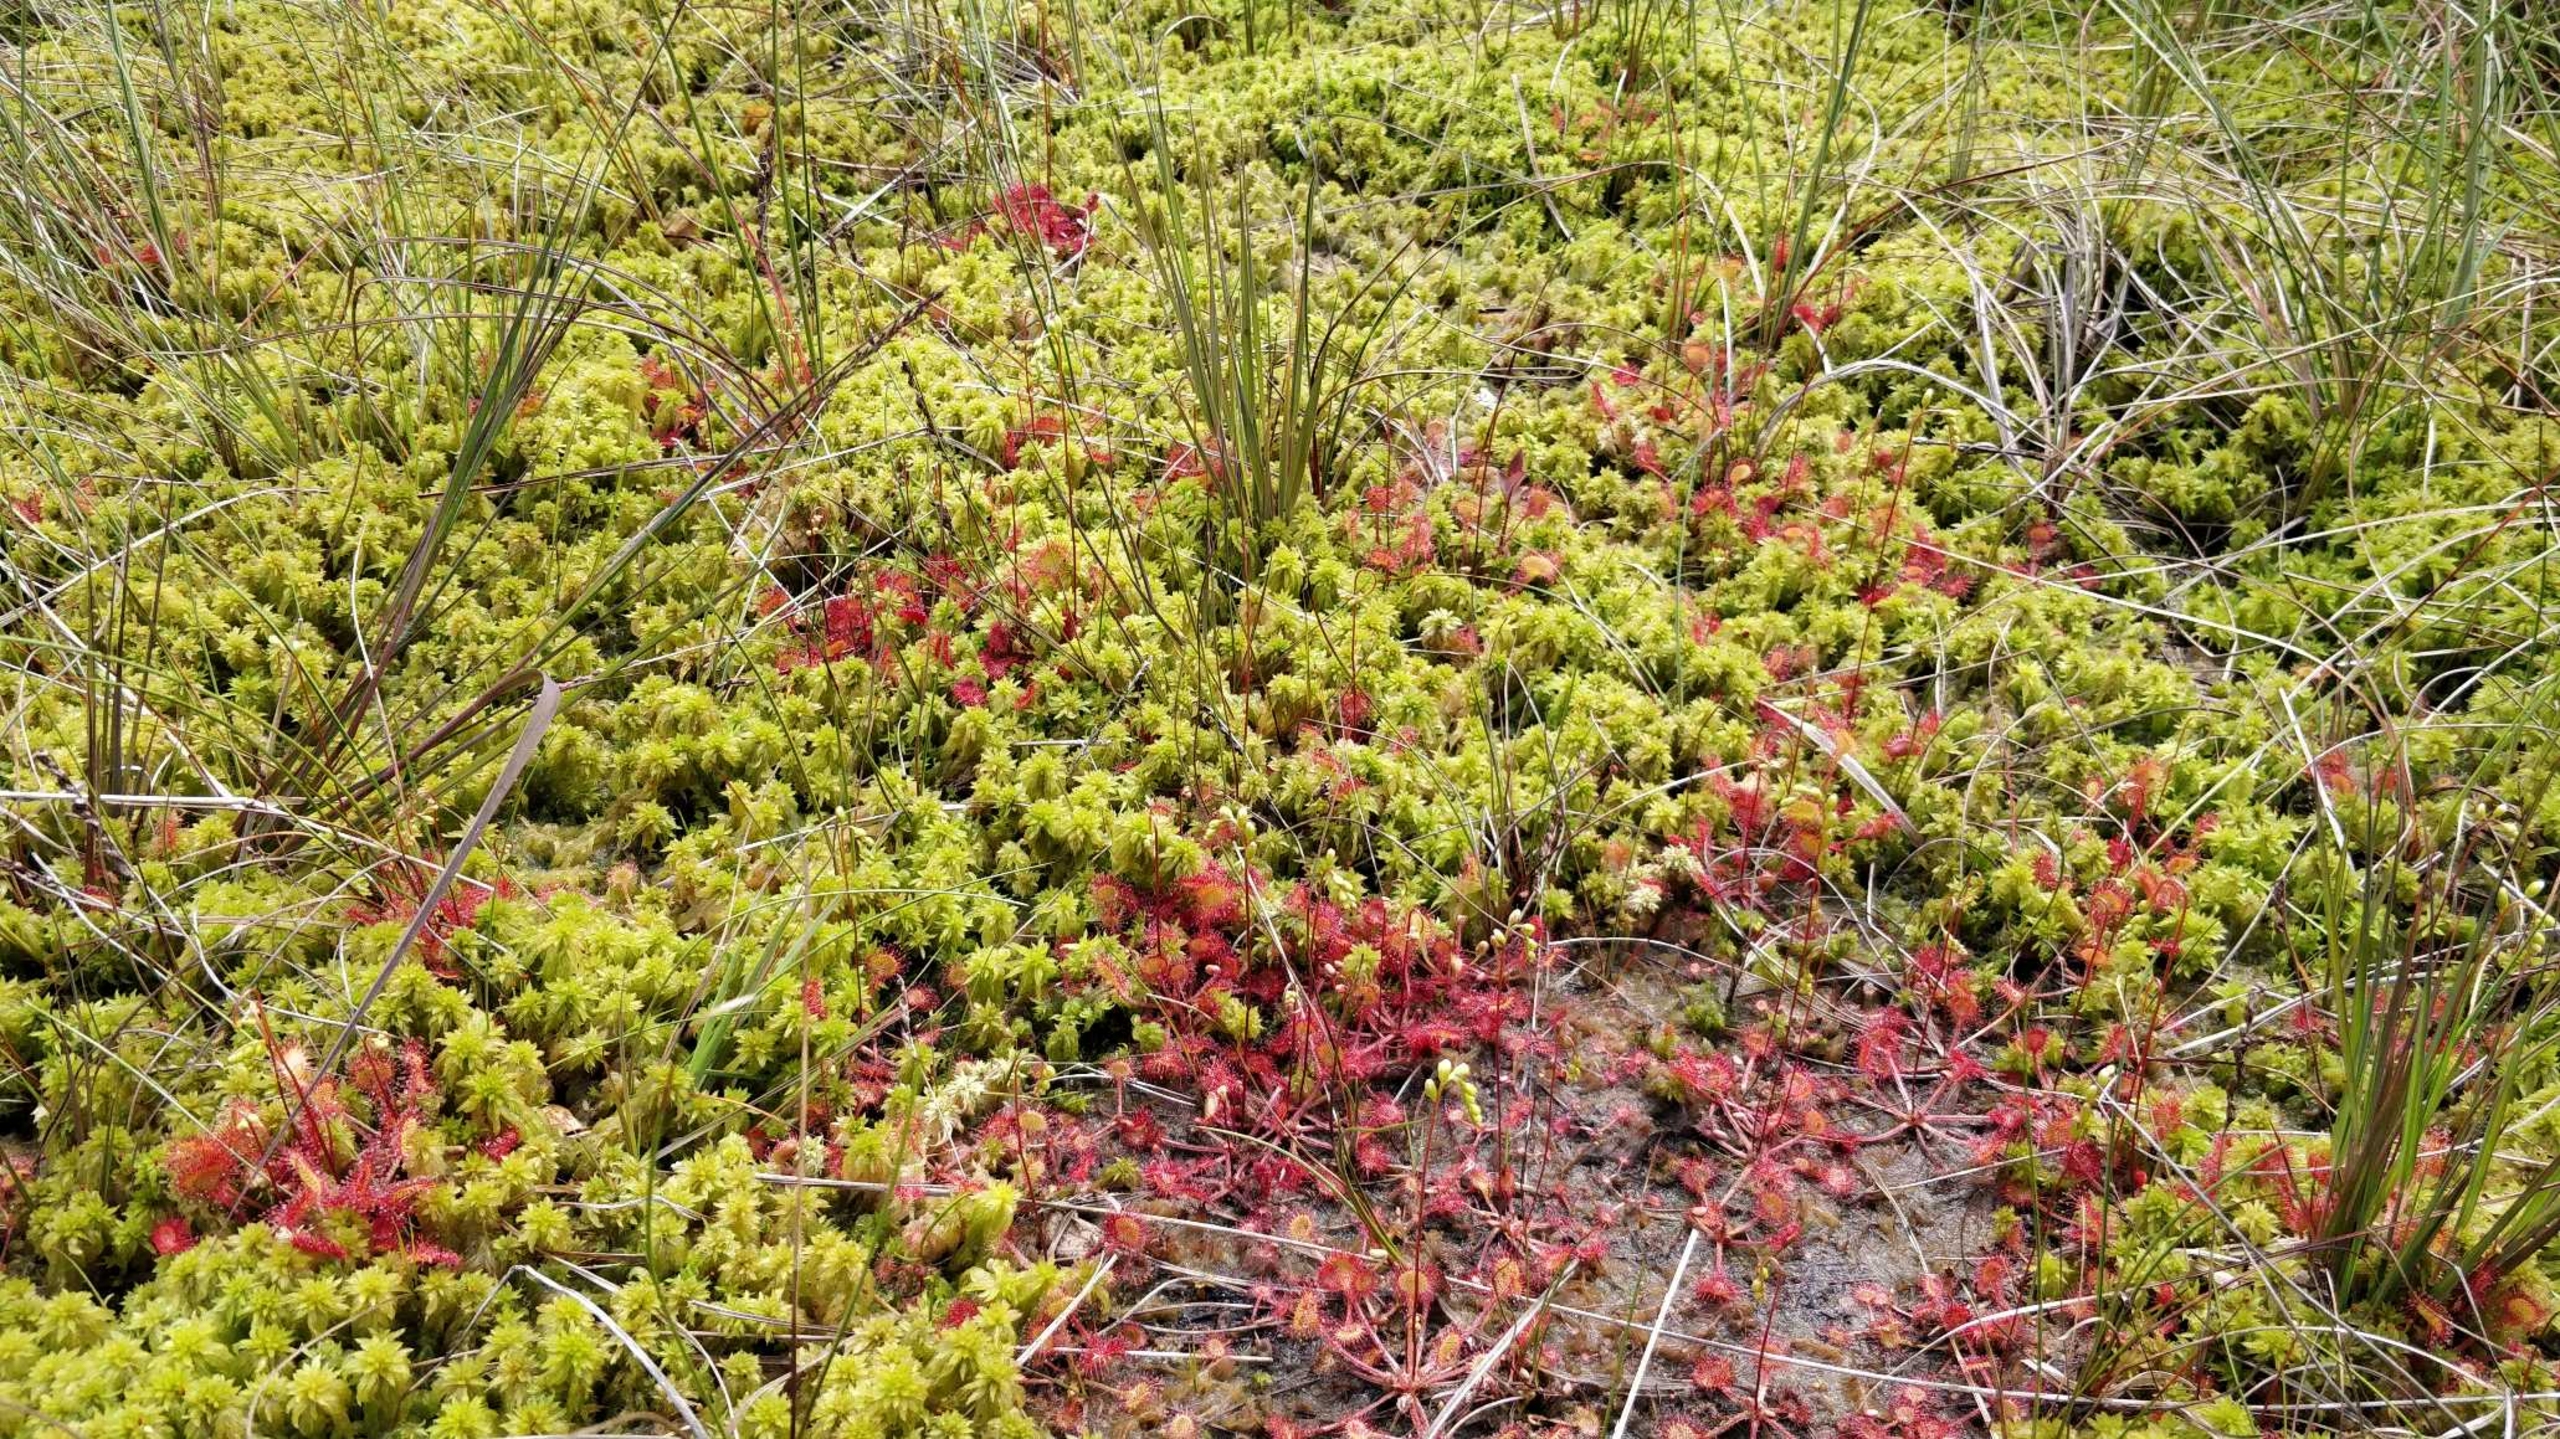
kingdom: Plantae
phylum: Tracheophyta
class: Magnoliopsida
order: Caryophyllales
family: Droseraceae
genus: Drosera
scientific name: Drosera rotundifolia
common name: Rundbladet soldug
